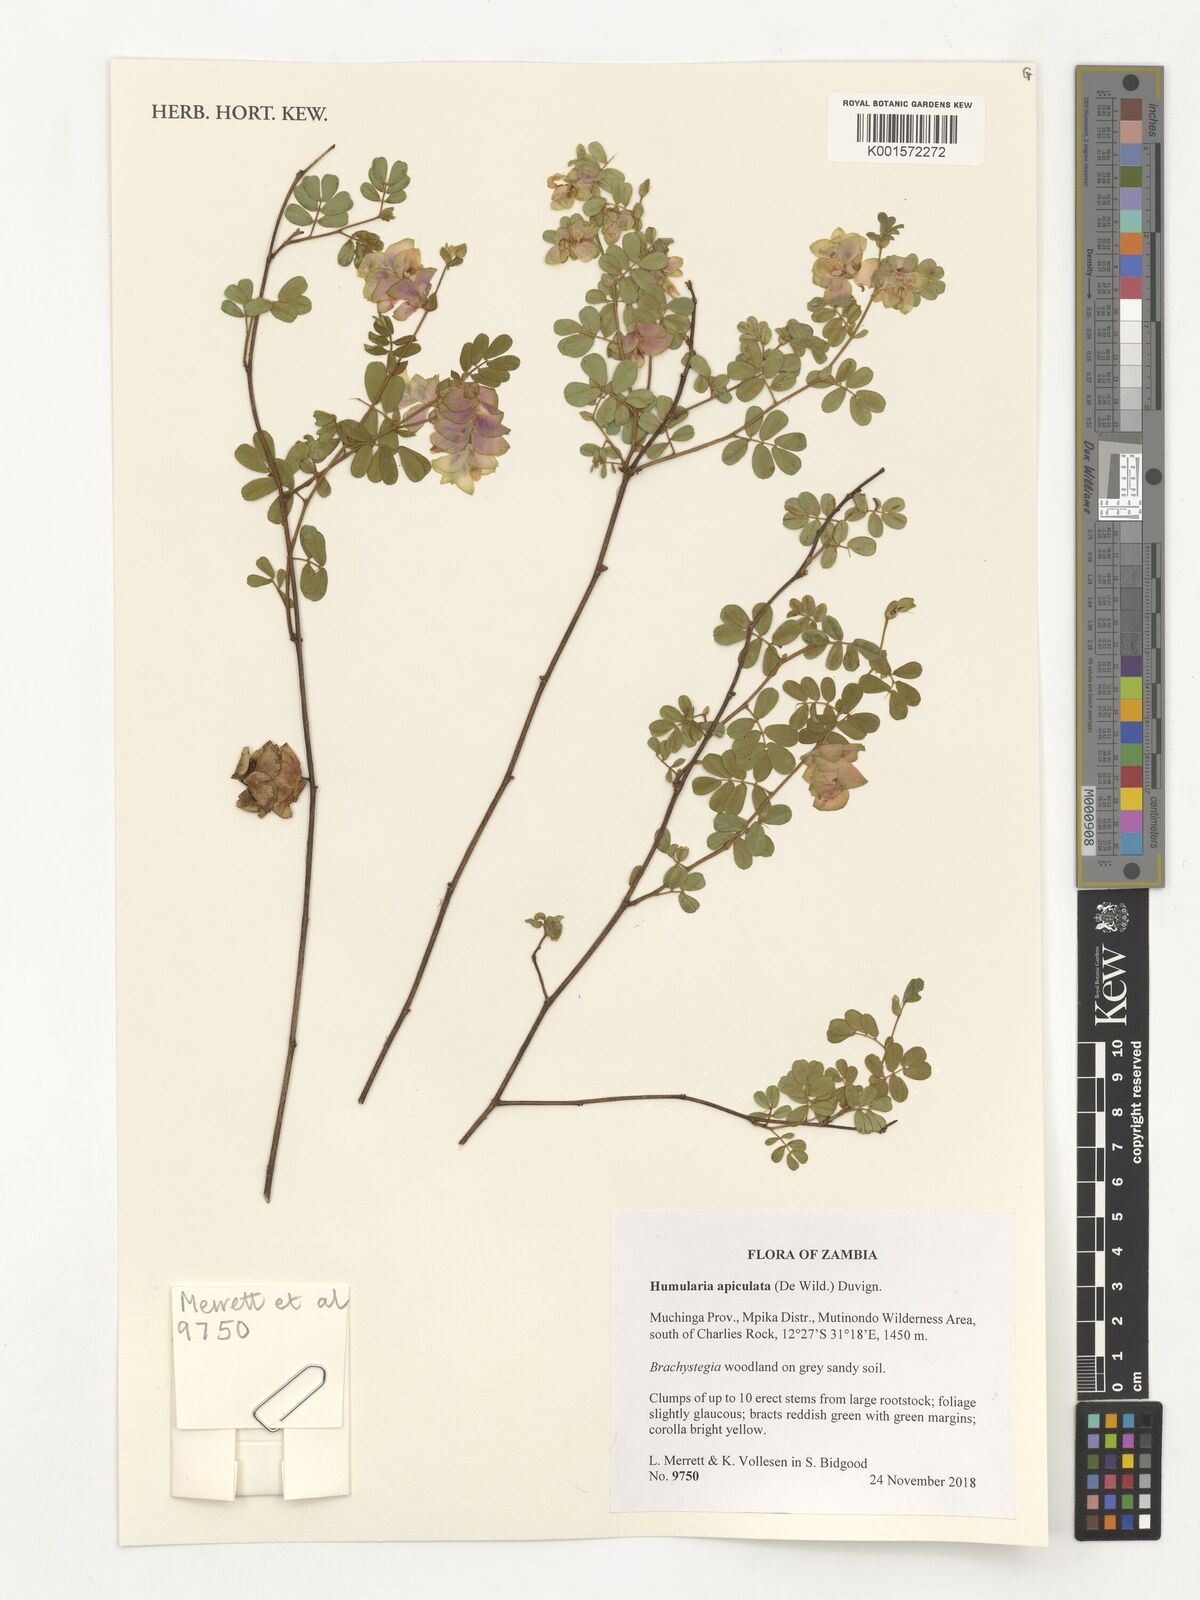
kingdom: Plantae
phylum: Tracheophyta
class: Magnoliopsida
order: Fabales
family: Fabaceae
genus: Humularia
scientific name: Humularia apiculata
